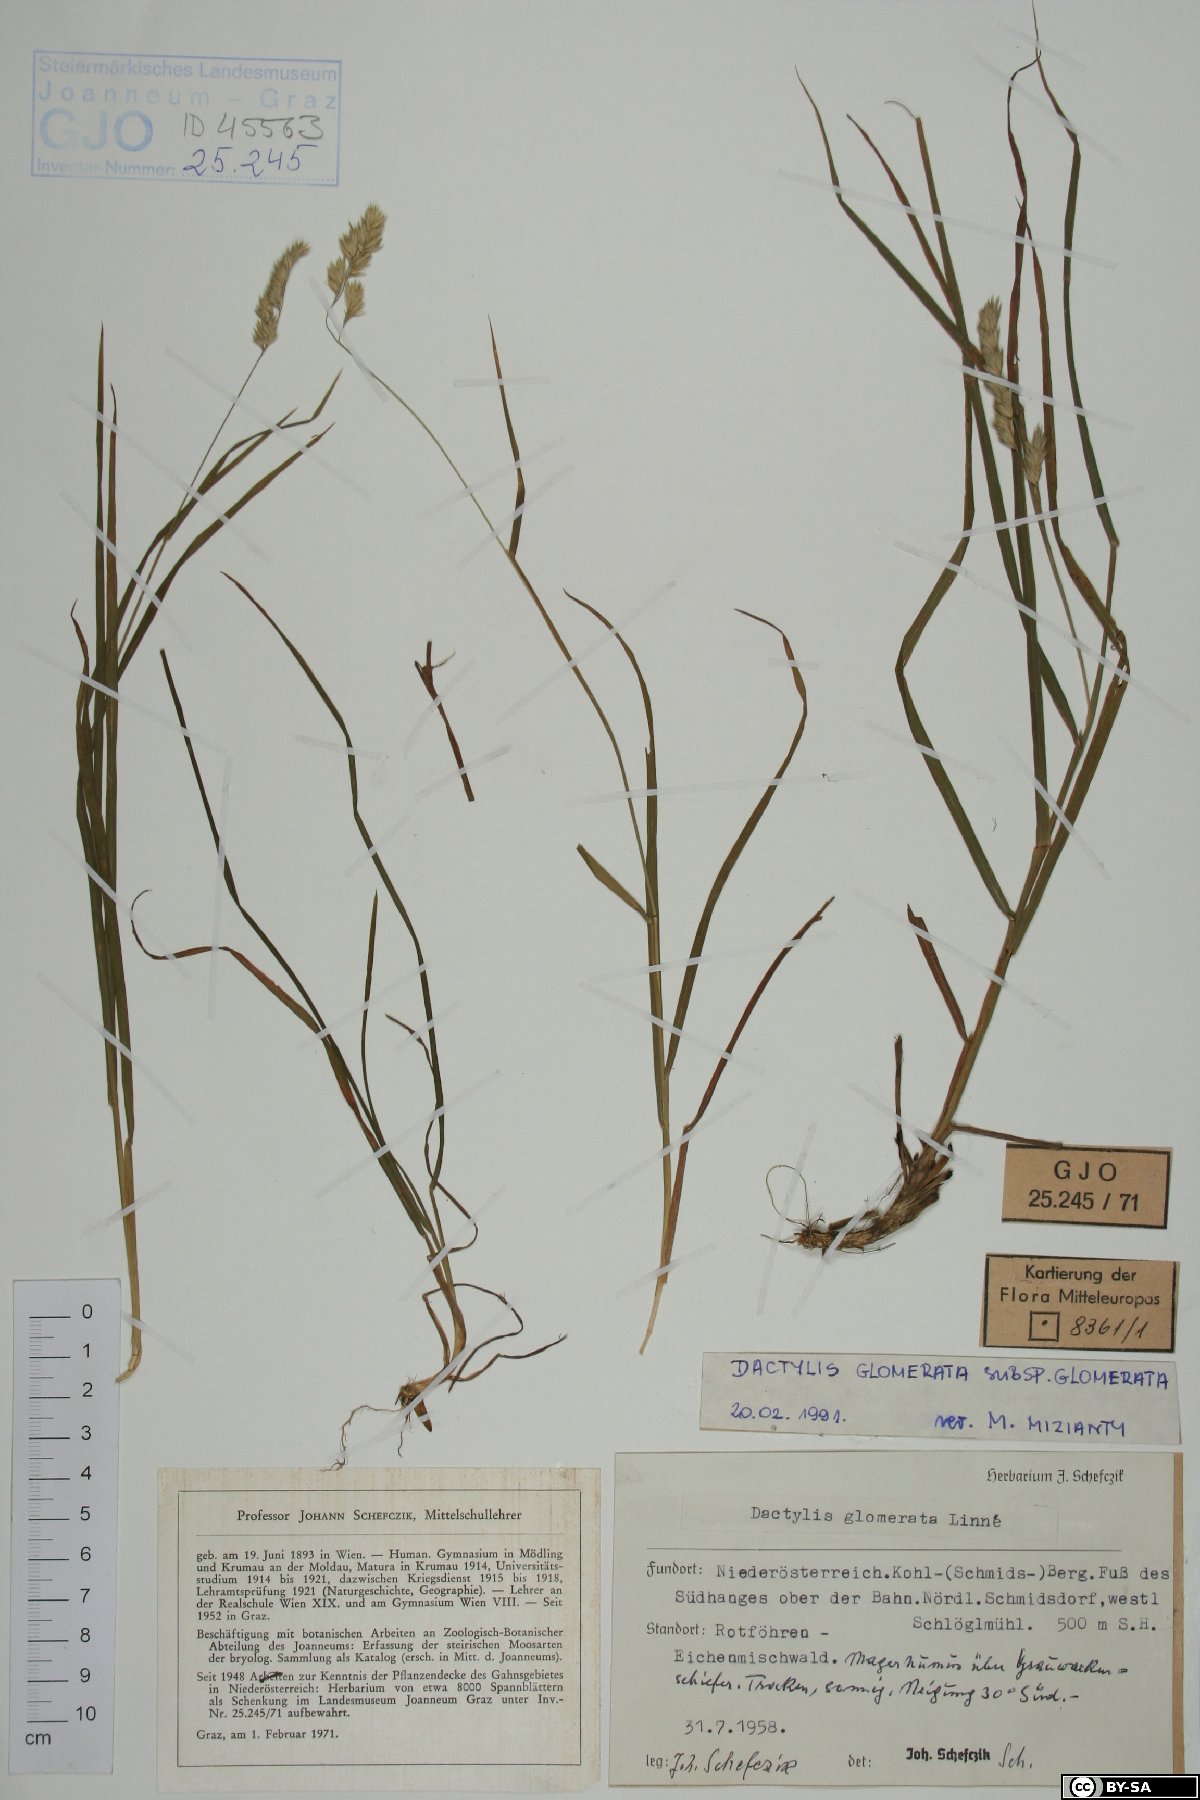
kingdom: Plantae
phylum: Tracheophyta
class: Liliopsida
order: Poales
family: Poaceae
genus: Dactylis
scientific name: Dactylis glomerata
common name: Orchardgrass
